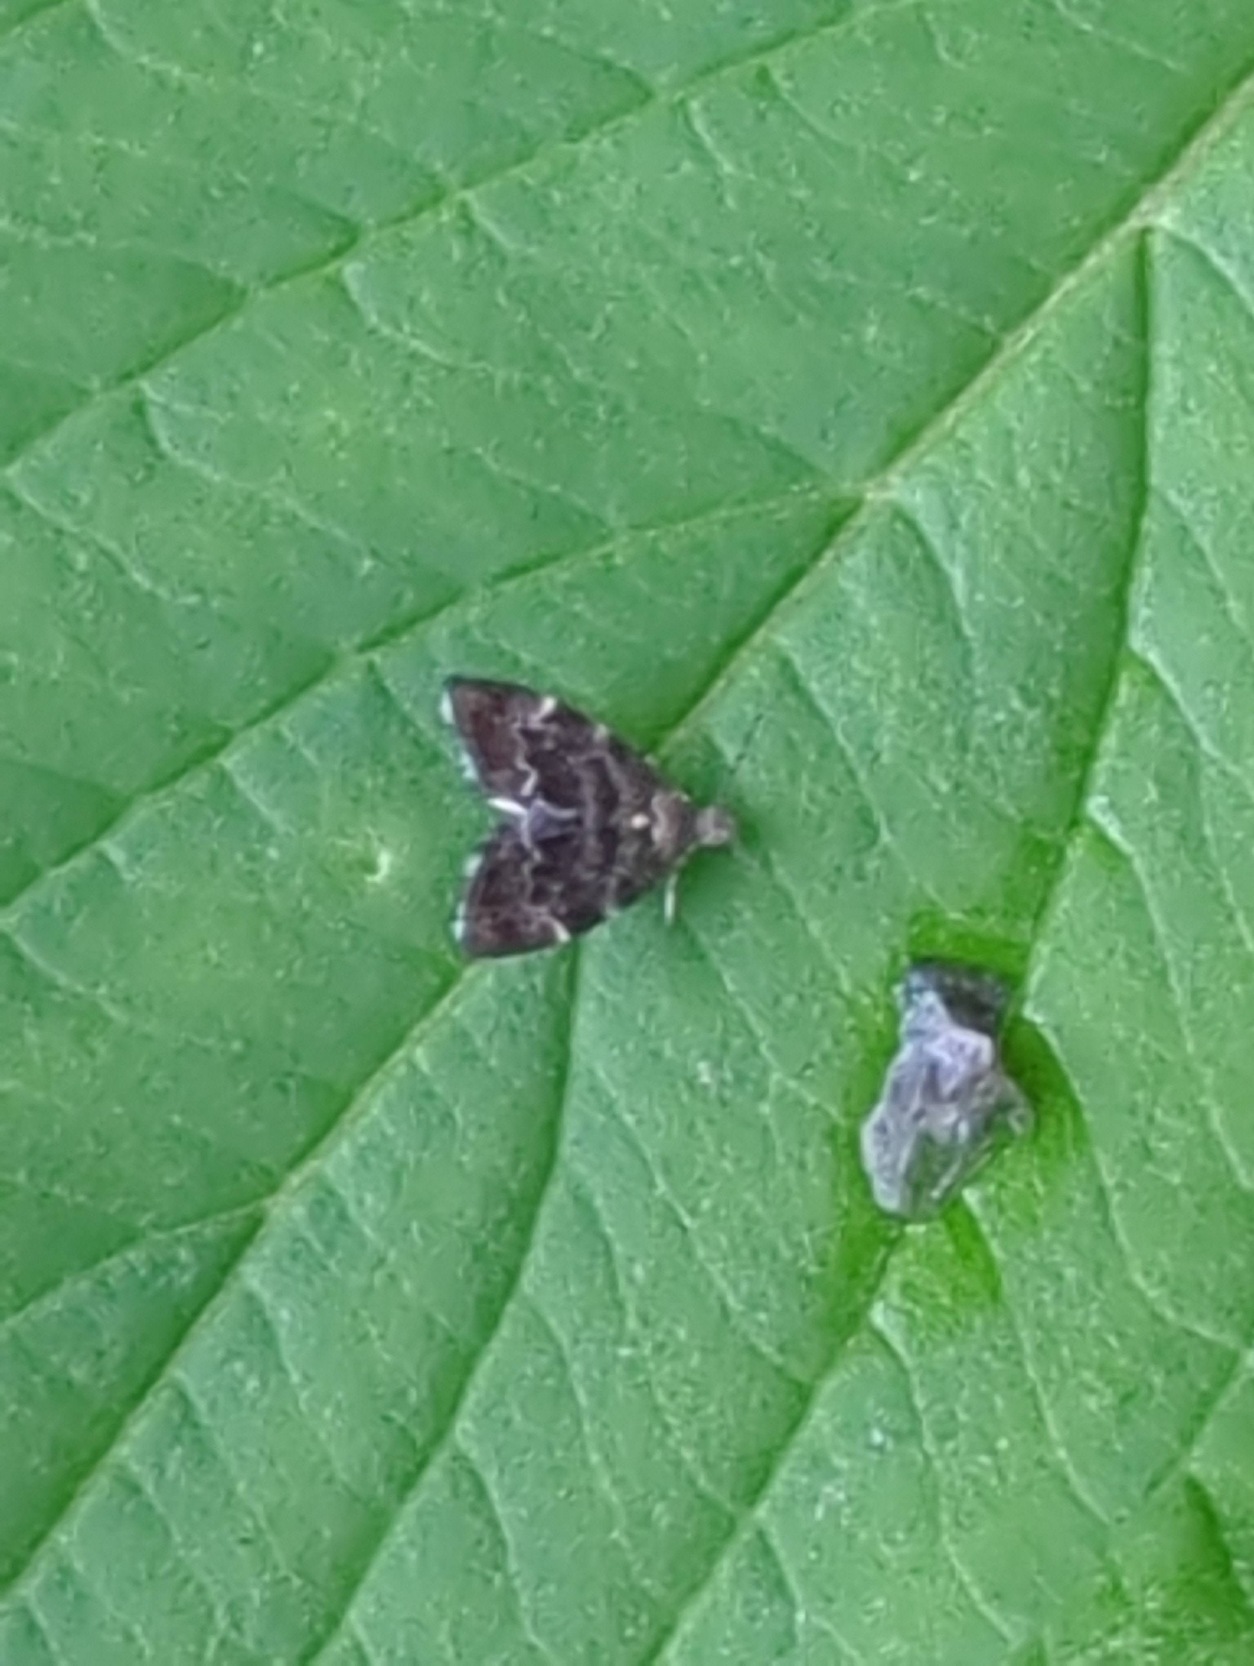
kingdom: Animalia
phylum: Arthropoda
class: Insecta
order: Lepidoptera
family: Choreutidae
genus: Anthophila
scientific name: Anthophila fabriciana
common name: Bredvinget nældevikler
